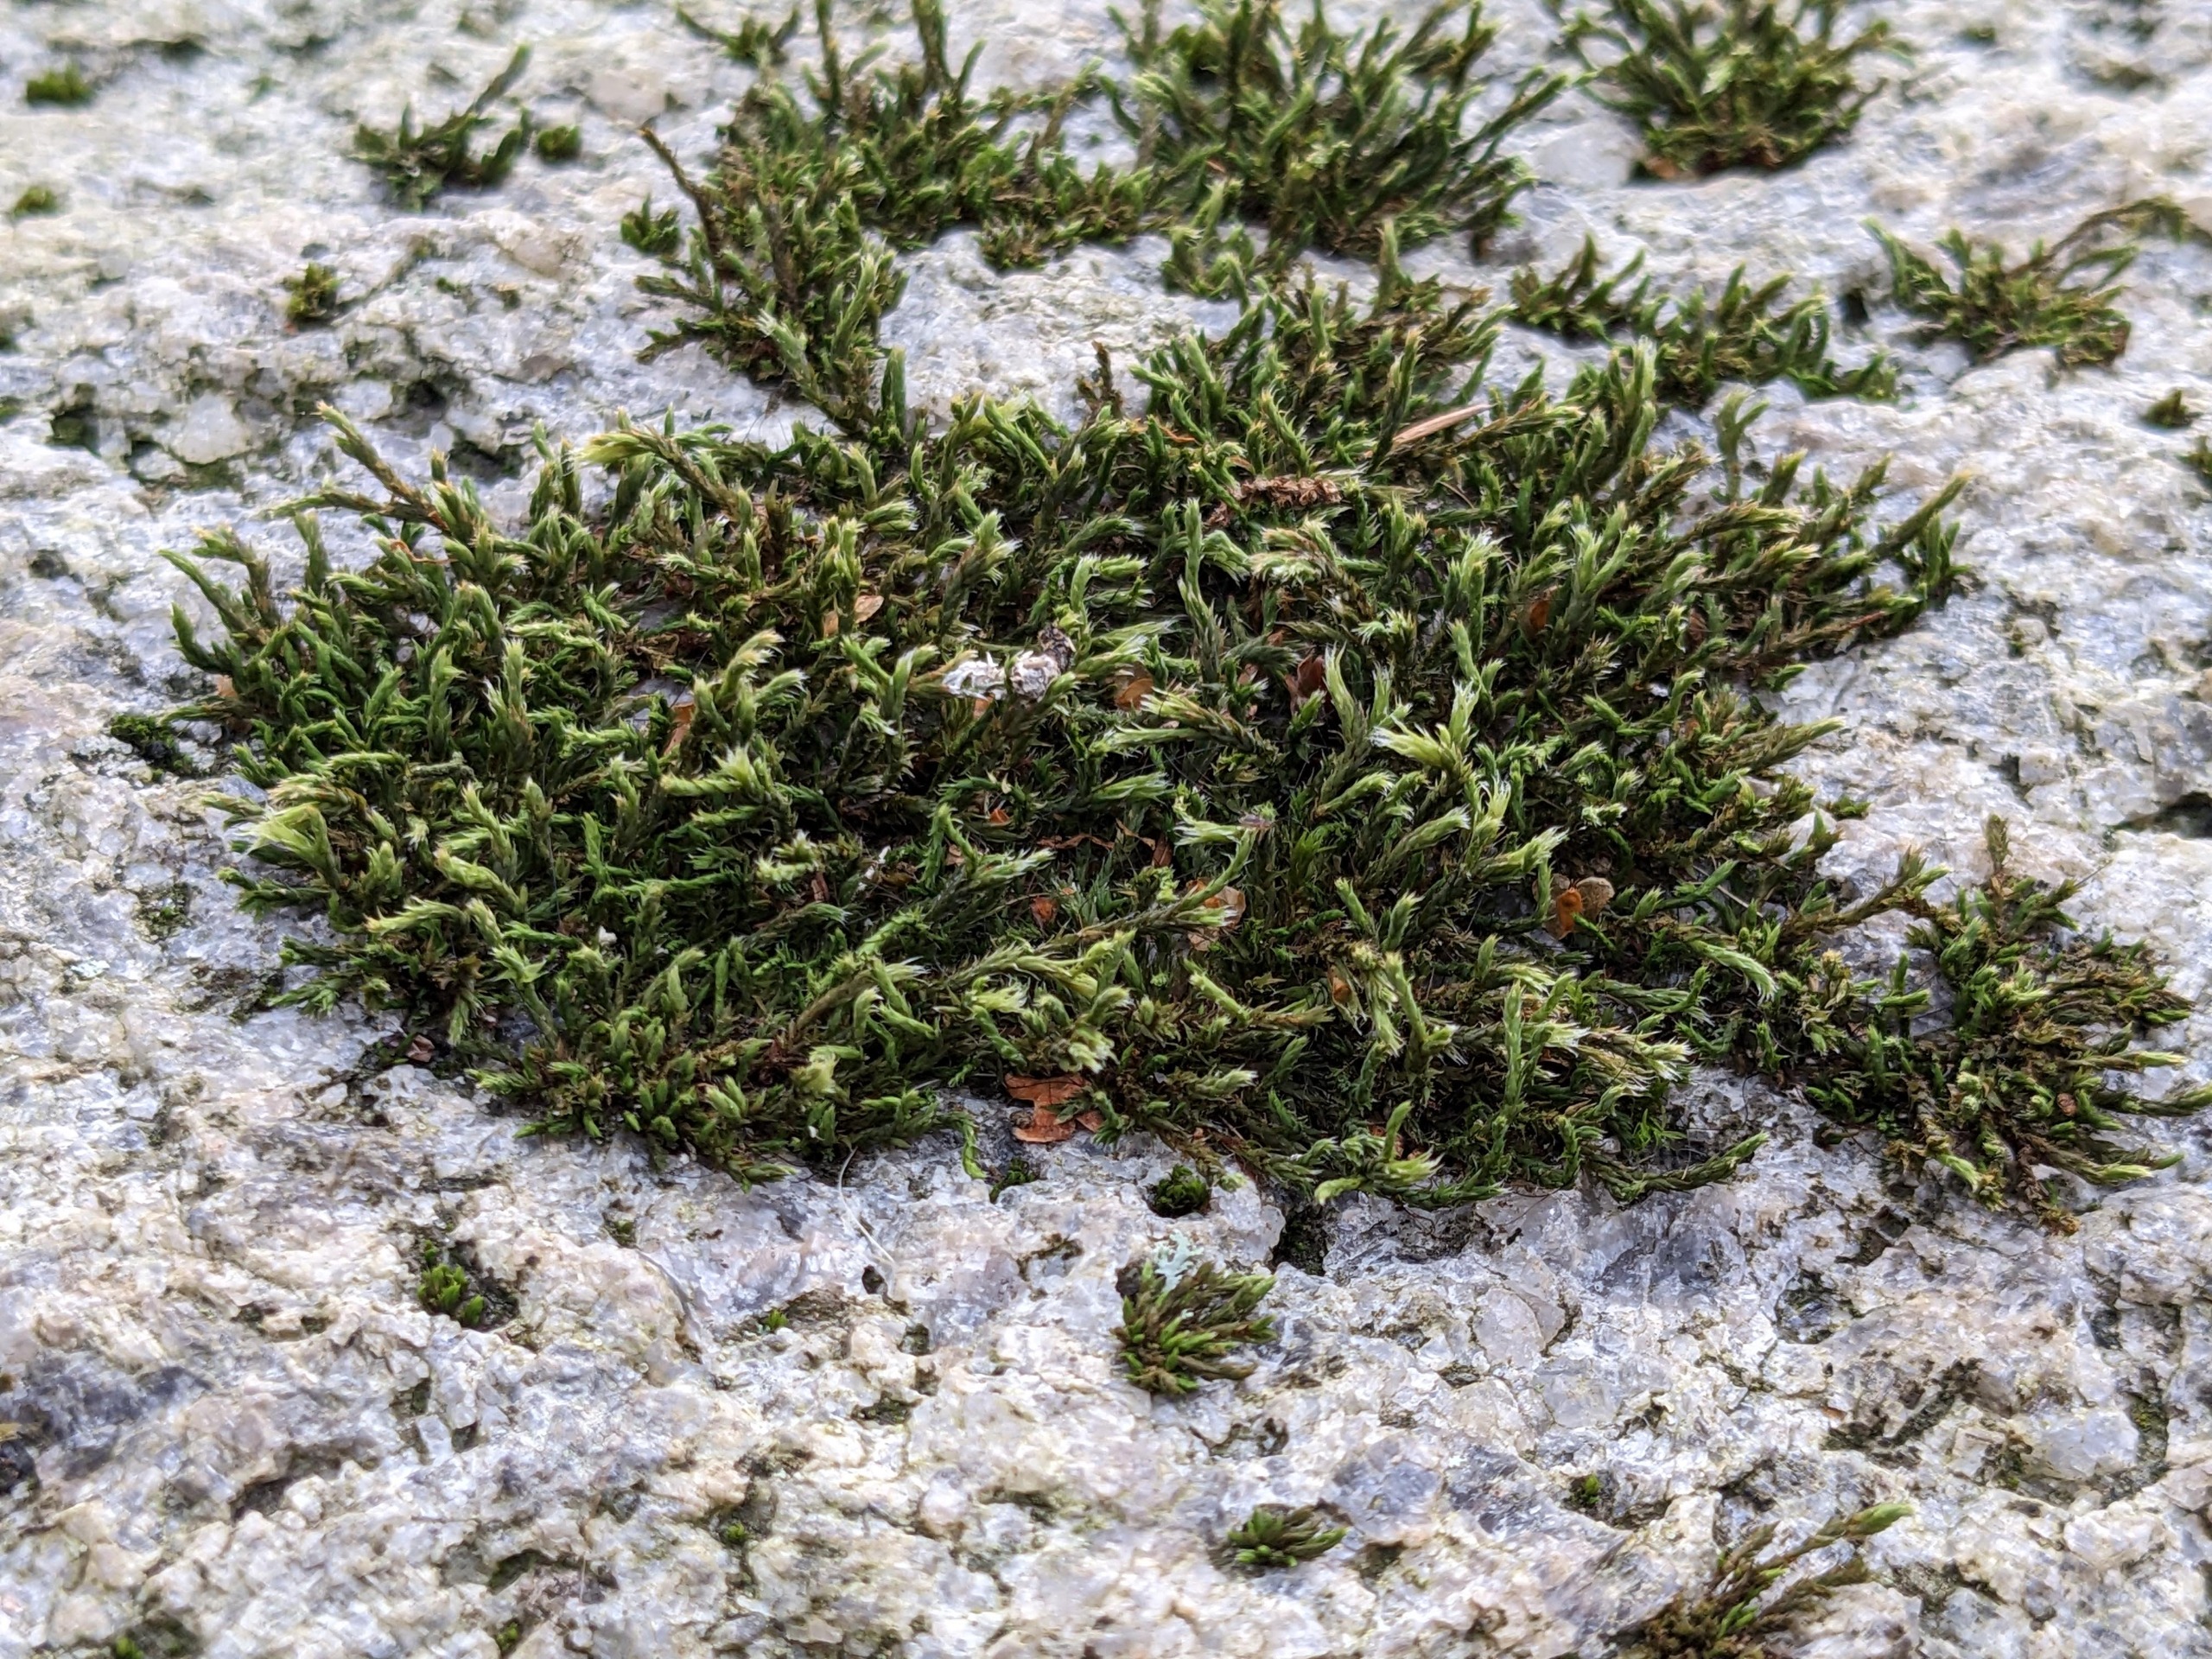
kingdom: Plantae
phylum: Bryophyta
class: Bryopsida
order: Hedwigiales
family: Hedwigiaceae
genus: Hedwigia
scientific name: Hedwigia ciliata
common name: Hvidspidset hedwigia
